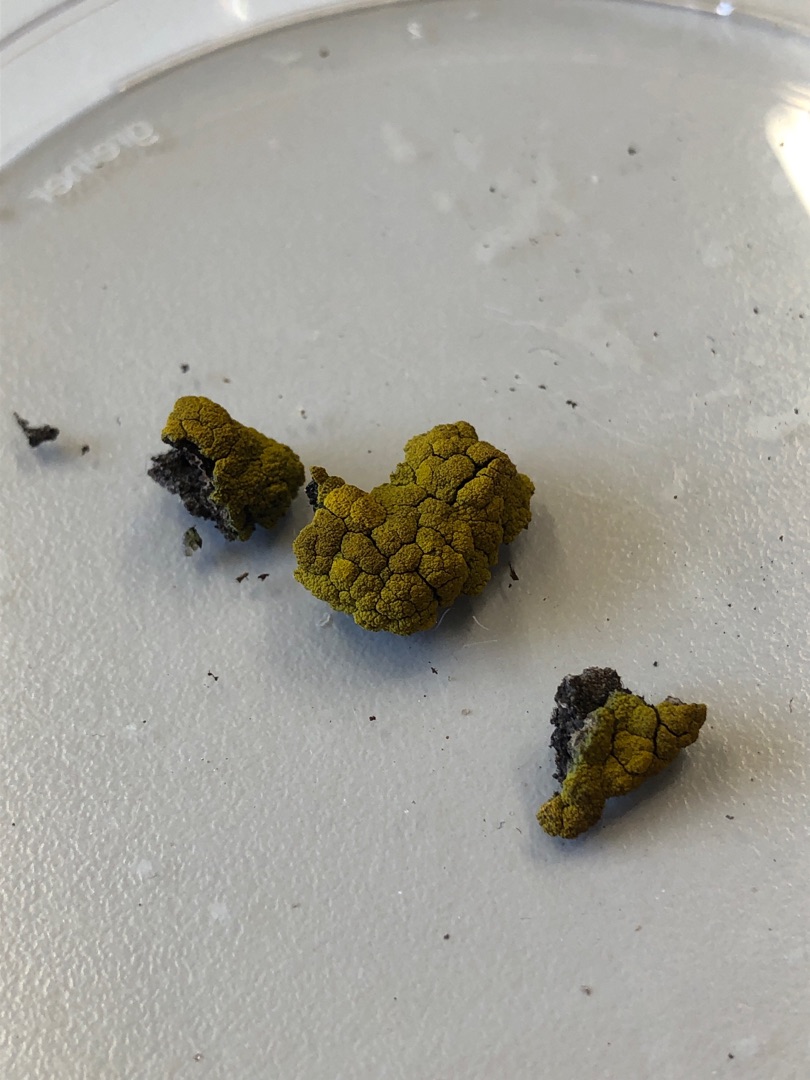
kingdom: Fungi
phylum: Ascomycota
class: Candelariomycetes
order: Candelariales
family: Candelariaceae
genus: Candelariella
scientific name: Candelariella coralliza
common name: Pude-æggeblommelav
